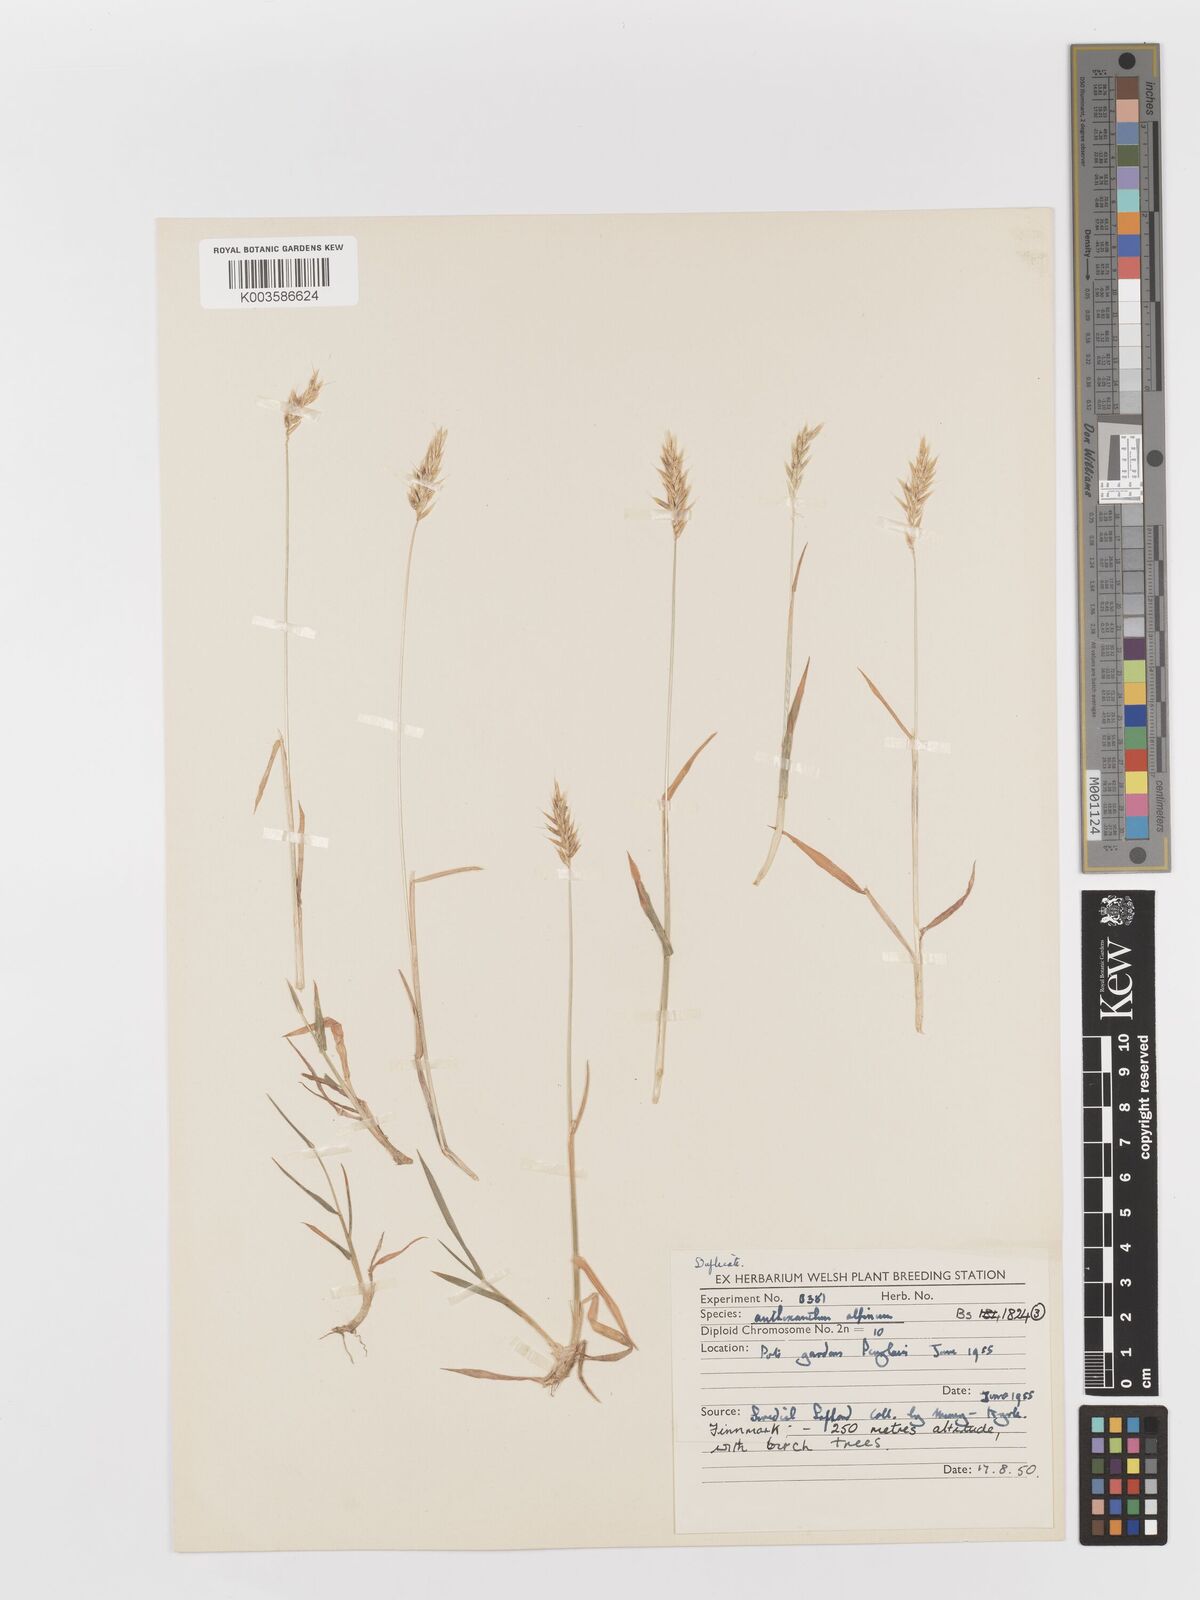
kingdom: Plantae
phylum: Tracheophyta
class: Liliopsida
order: Poales
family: Poaceae
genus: Anthoxanthum
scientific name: Anthoxanthum odoratum
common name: Sweet vernalgrass
